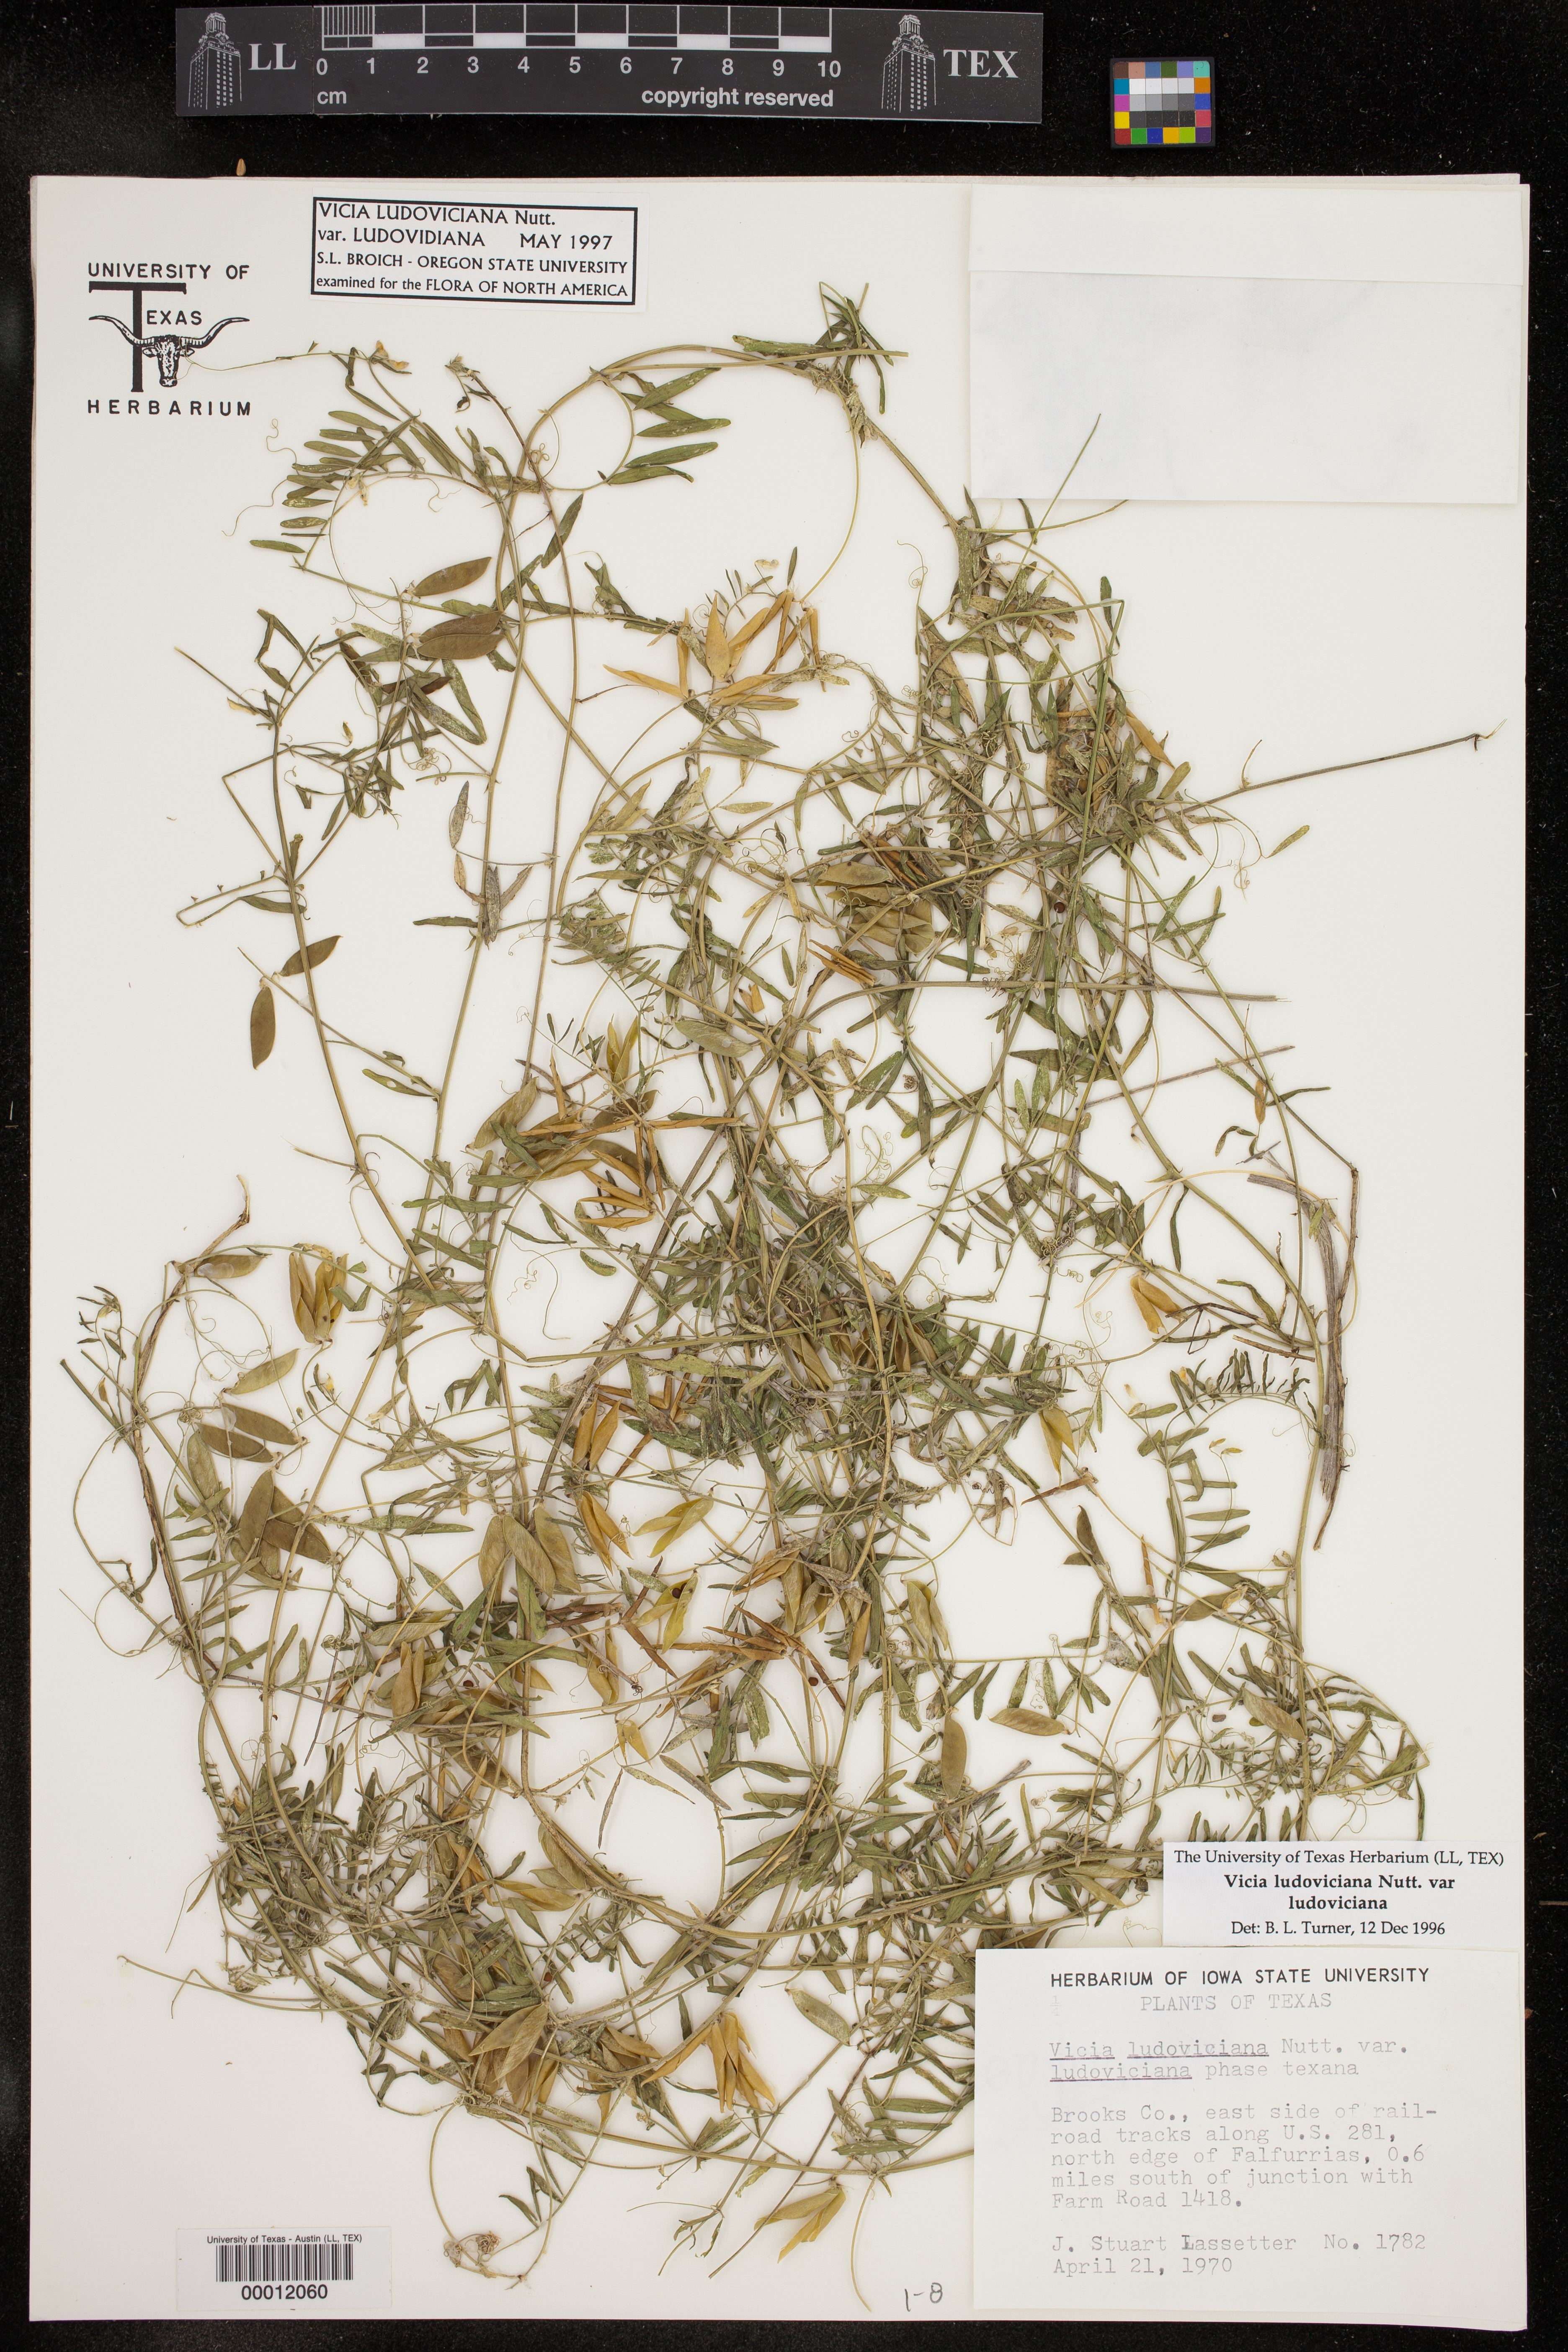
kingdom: Plantae
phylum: Tracheophyta
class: Magnoliopsida
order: Fabales
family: Fabaceae
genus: Vicia
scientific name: Vicia ludoviciana
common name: Louisiana vetch
